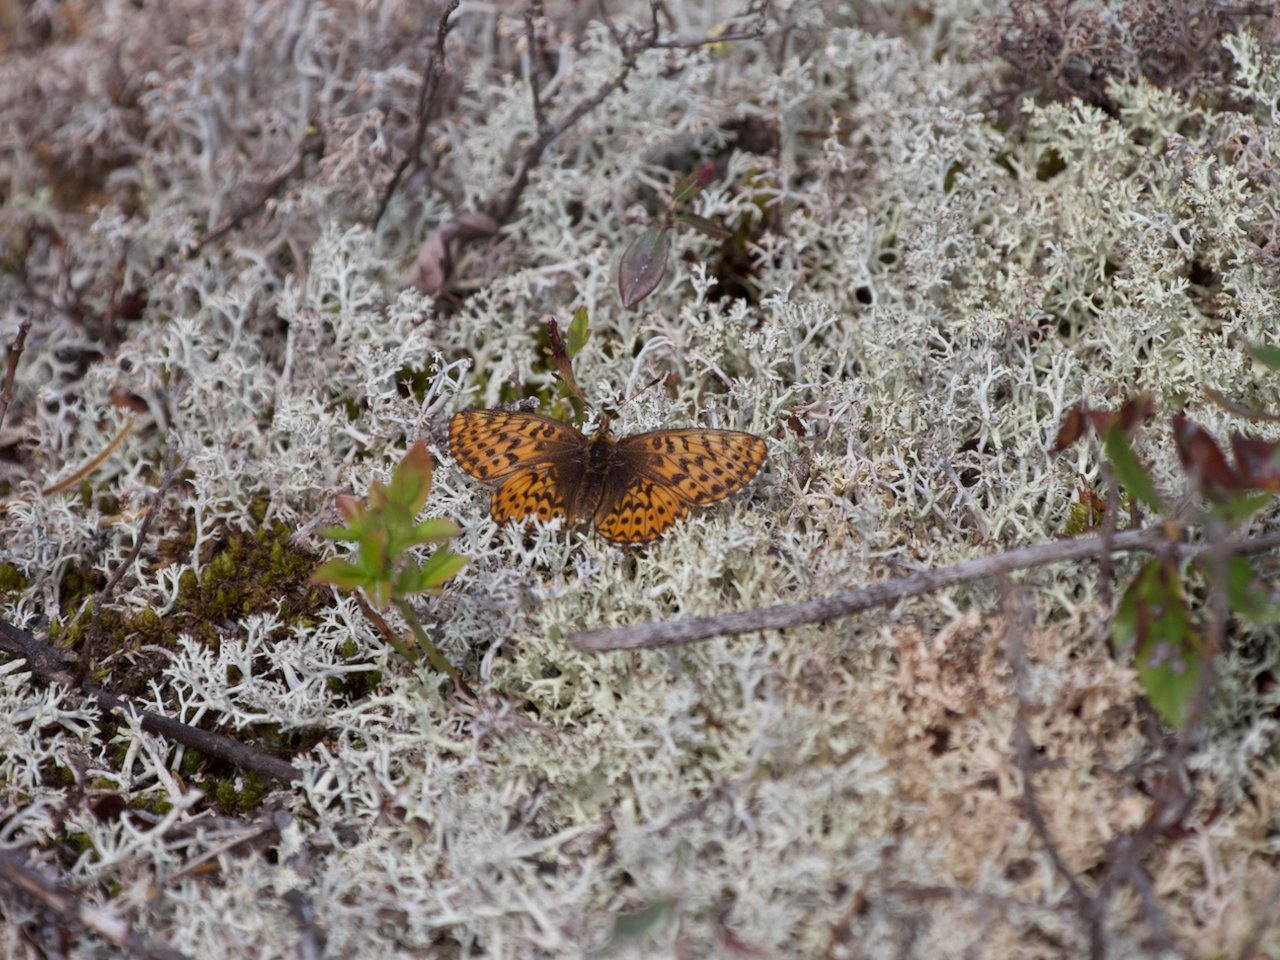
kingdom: Animalia
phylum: Arthropoda
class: Insecta
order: Lepidoptera
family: Nymphalidae
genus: Boloria
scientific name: Boloria freija
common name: Freija Fritillary
